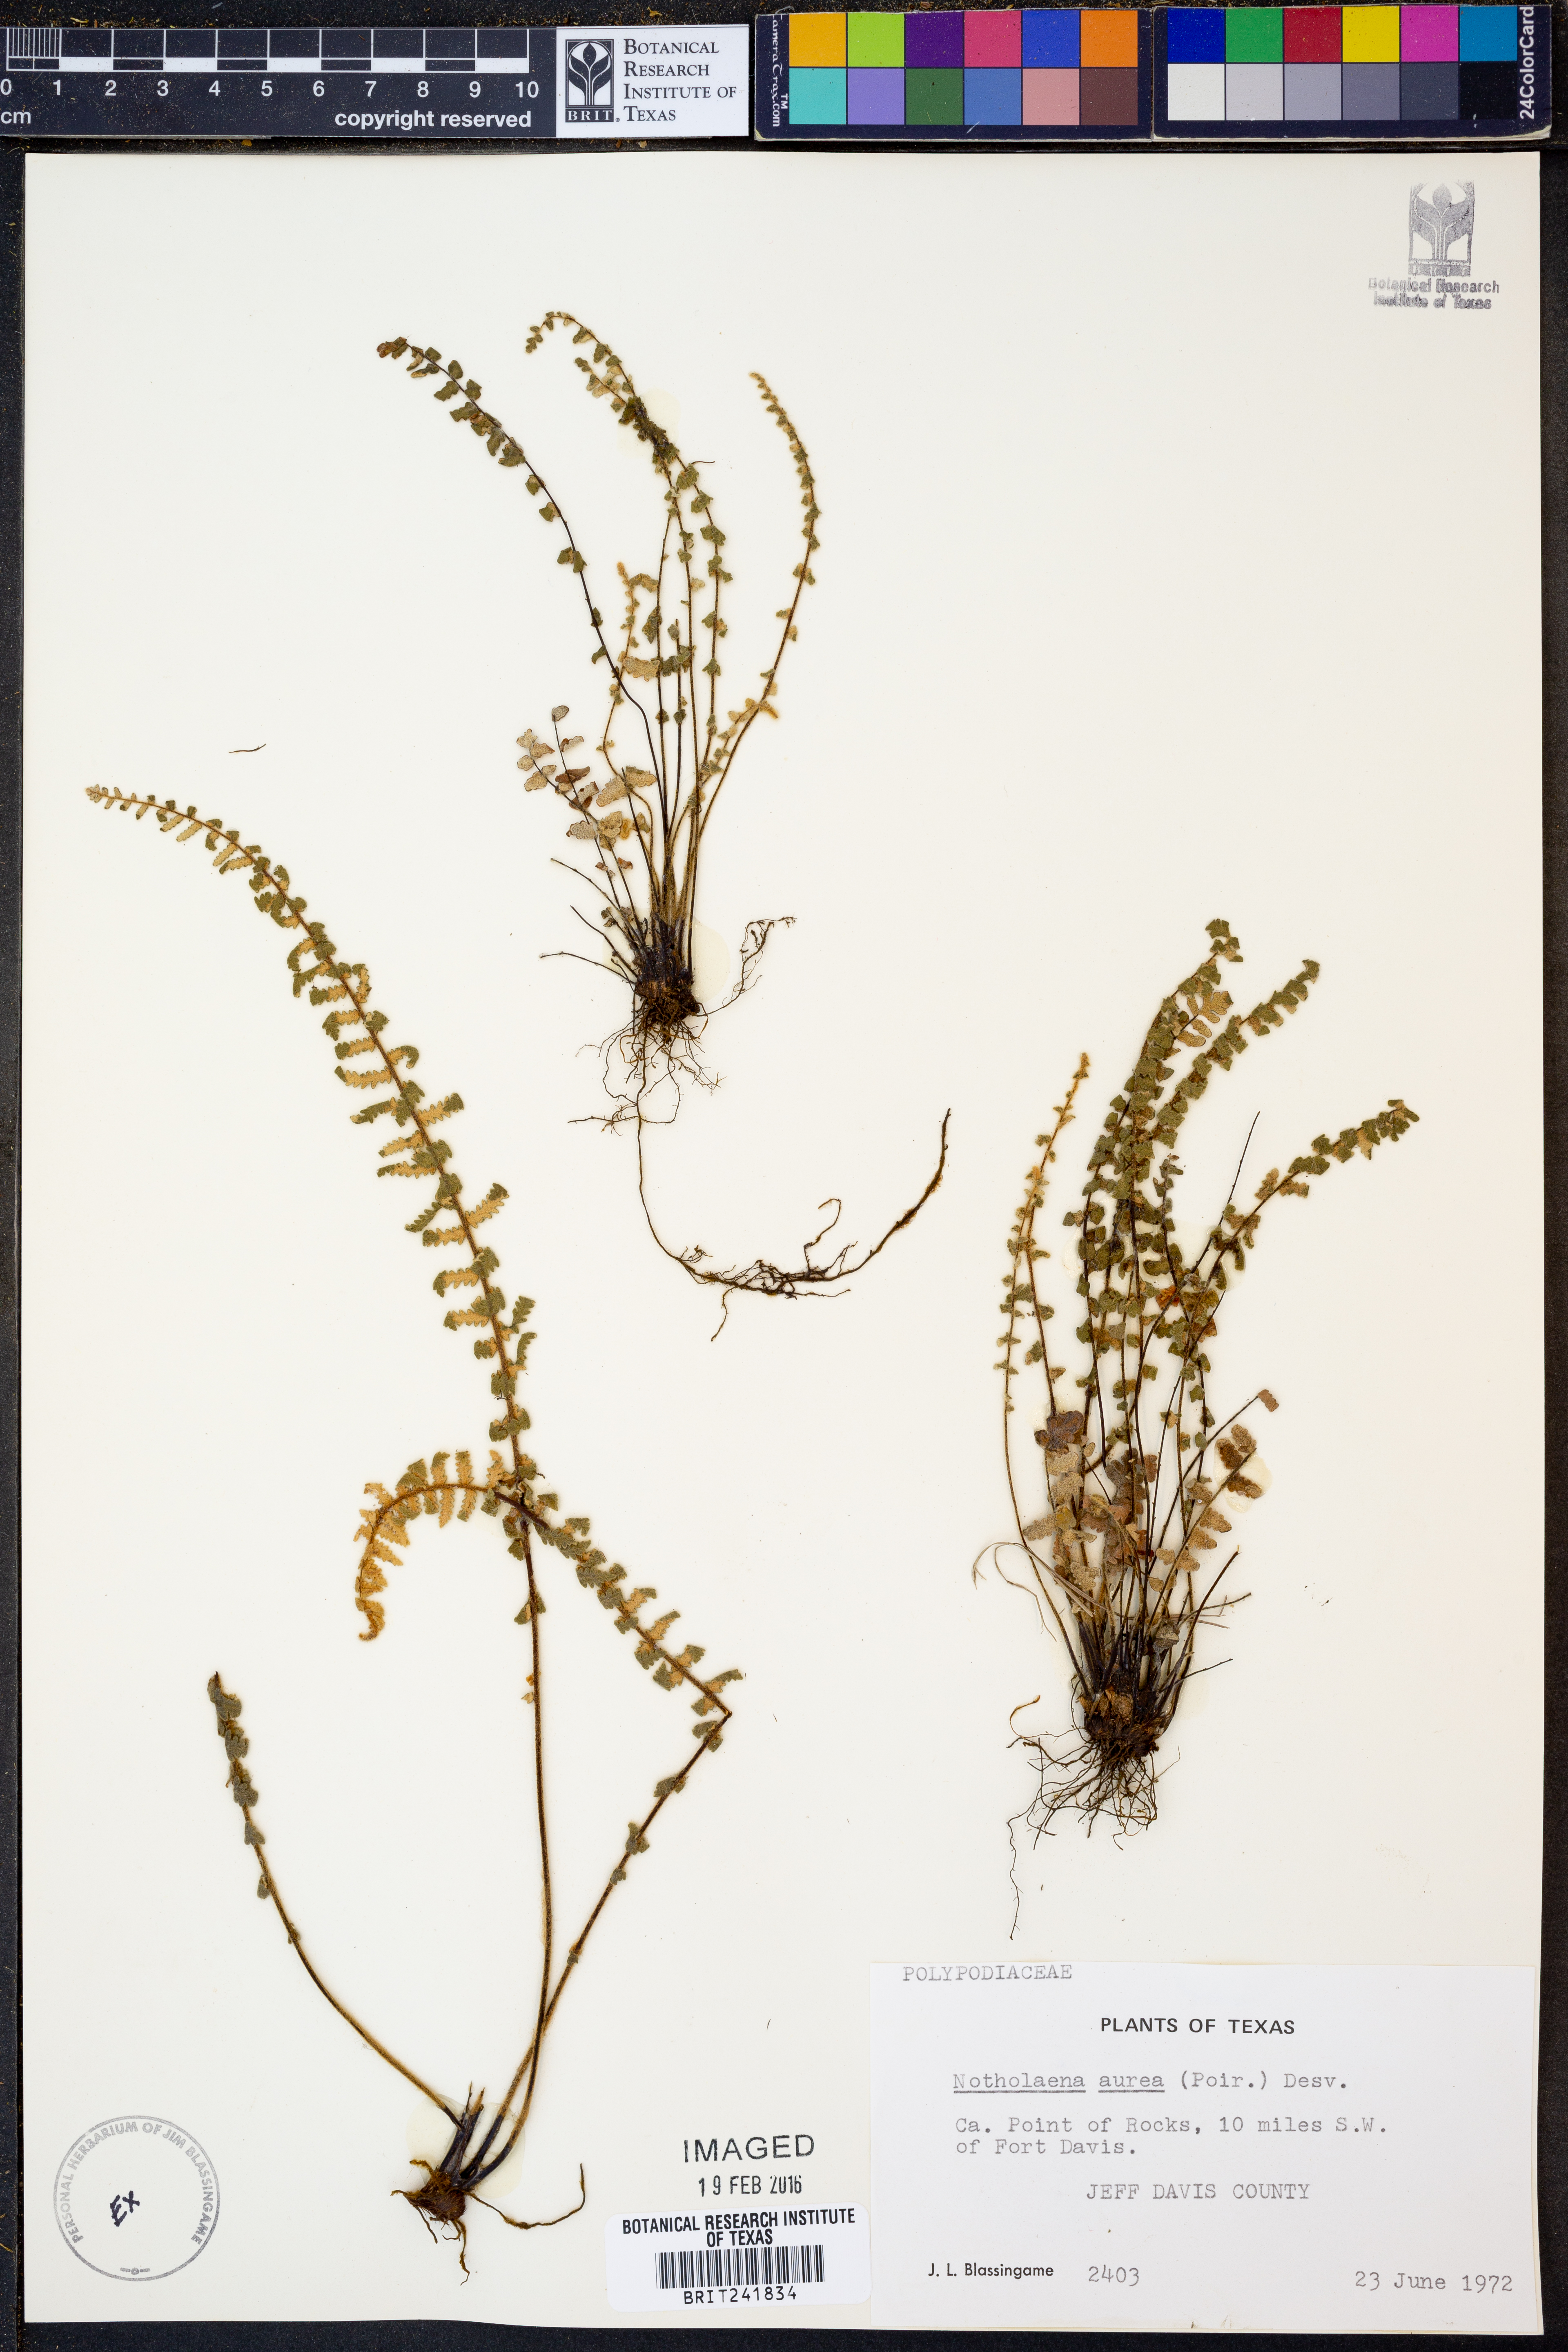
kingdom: Plantae
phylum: Tracheophyta
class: Polypodiopsida
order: Polypodiales
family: Pteridaceae
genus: Myriopteris
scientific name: Myriopteris aurea
